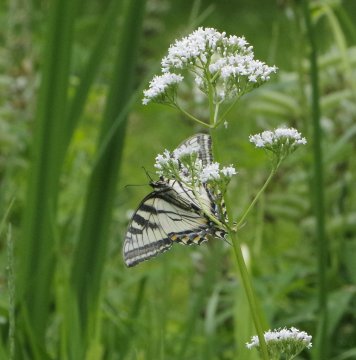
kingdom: Animalia
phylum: Arthropoda
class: Insecta
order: Lepidoptera
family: Papilionidae
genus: Pterourus
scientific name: Pterourus canadensis
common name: Canadian Tiger Swallowtail
